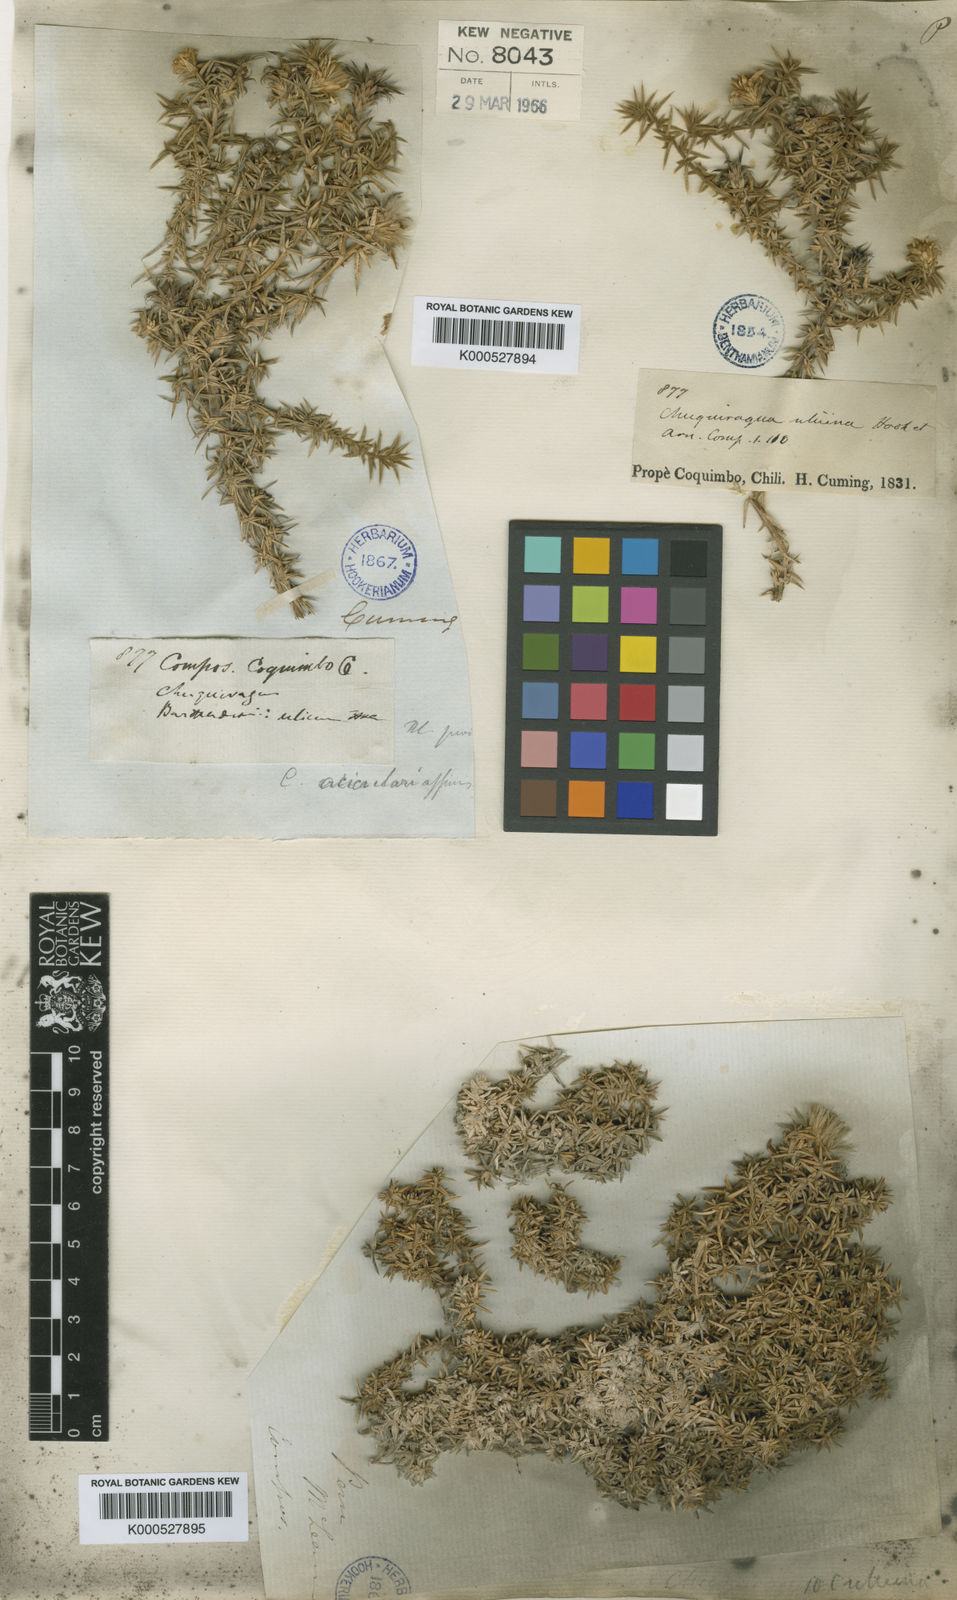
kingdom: Plantae
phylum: Tracheophyta
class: Magnoliopsida
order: Asterales
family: Asteraceae
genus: Chuquiraga
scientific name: Chuquiraga ulicina
